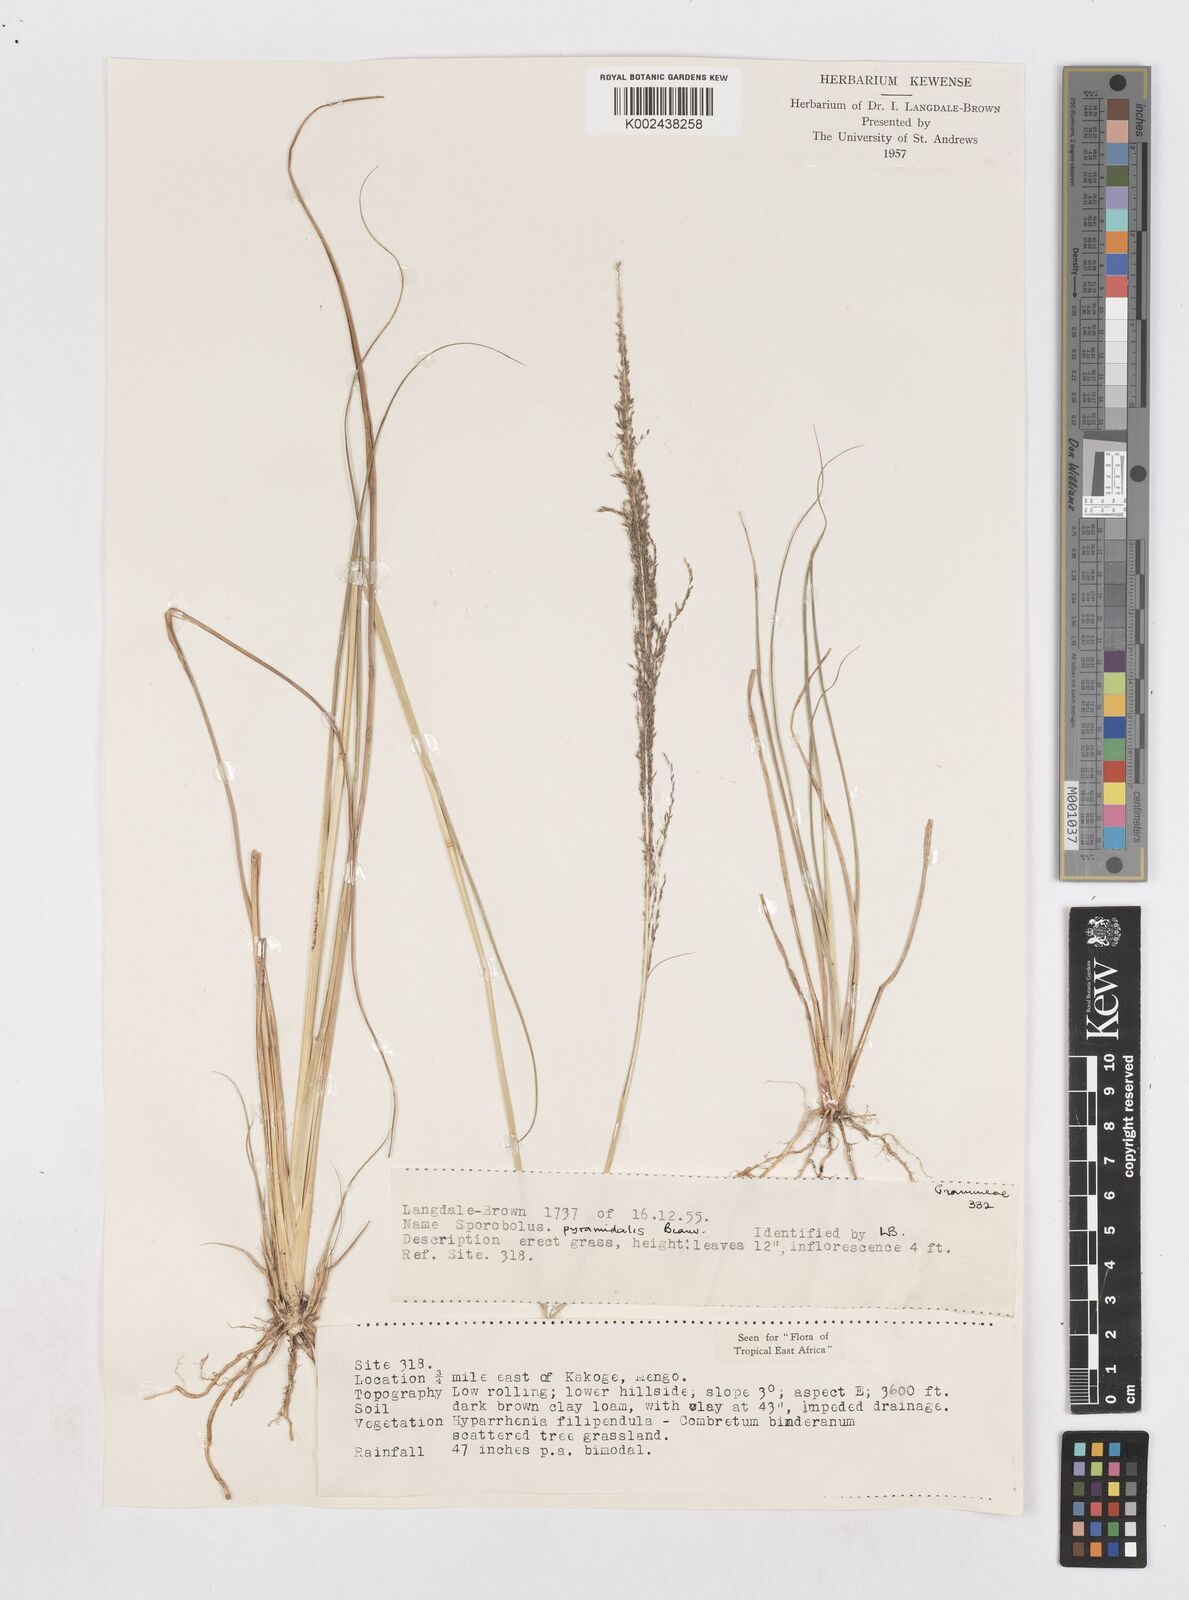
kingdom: Plantae
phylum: Tracheophyta
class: Liliopsida
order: Poales
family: Poaceae
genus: Sporobolus
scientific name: Sporobolus pyramidalis
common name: West indian dropseed
